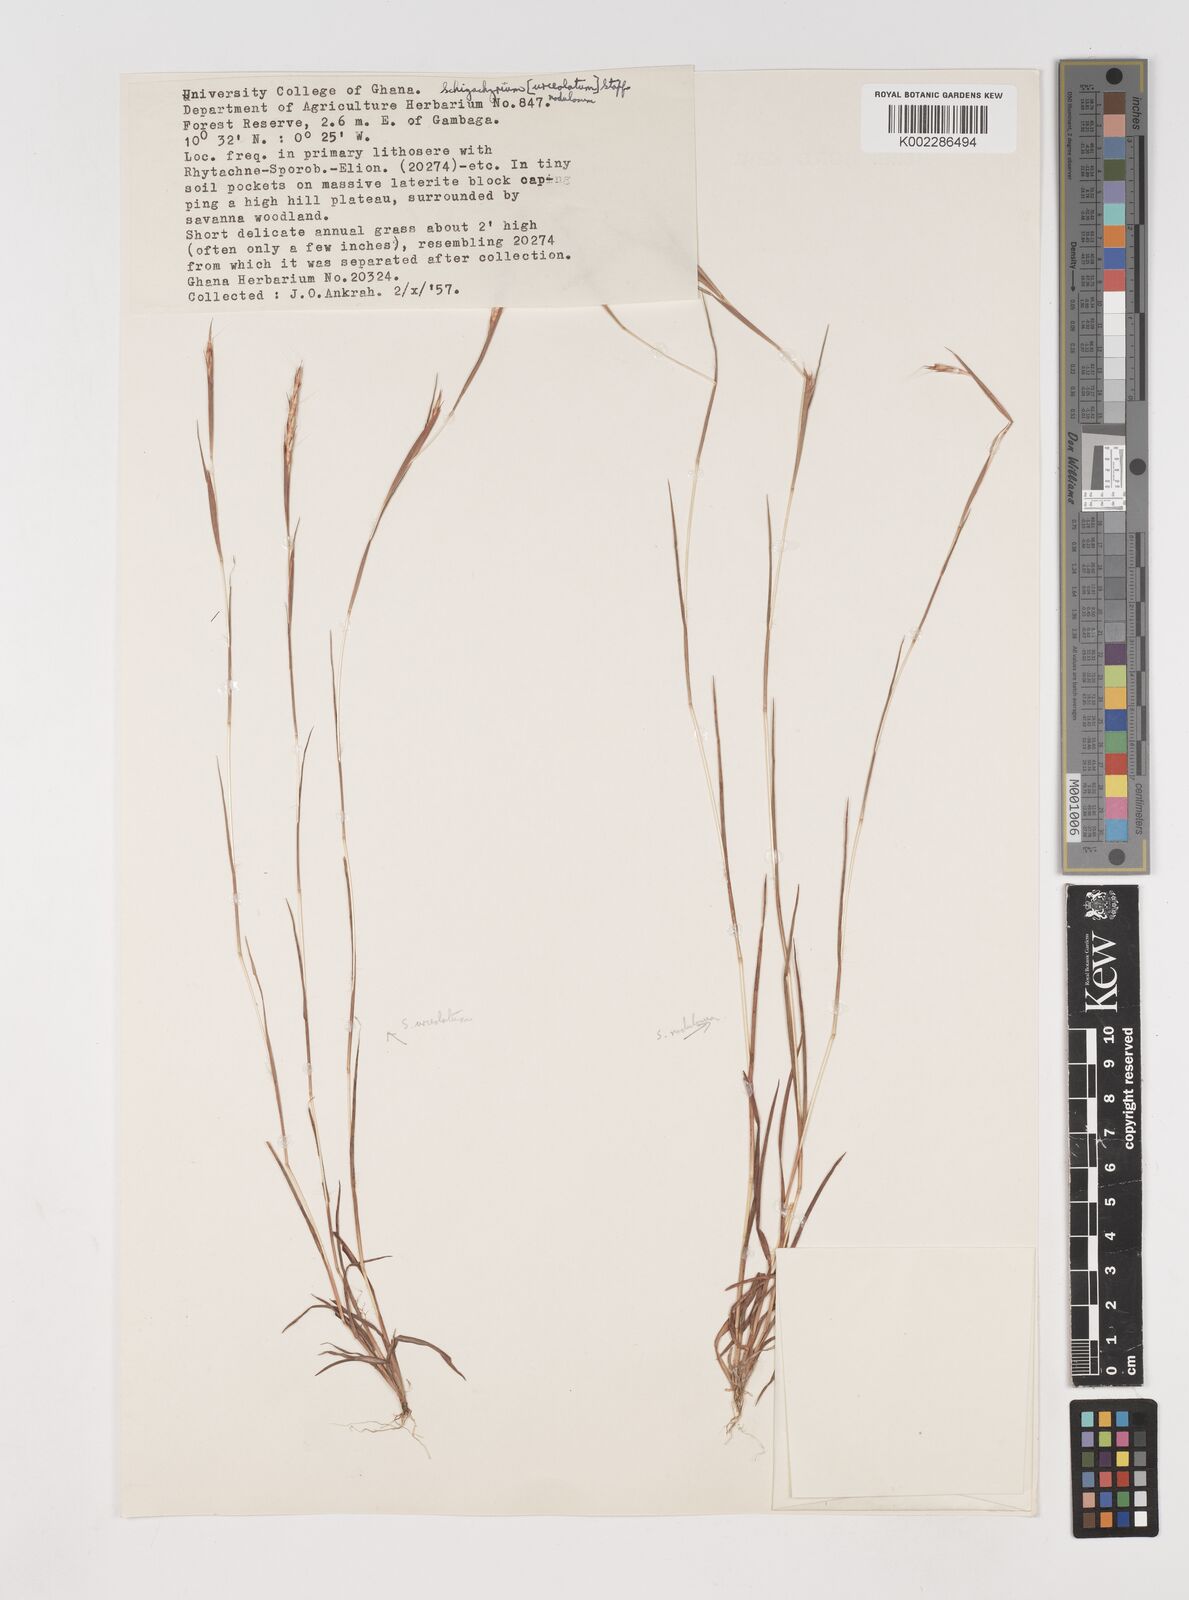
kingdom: Plantae
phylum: Tracheophyta
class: Liliopsida
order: Poales
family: Poaceae
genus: Schizachyrium
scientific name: Schizachyrium nodulosum
